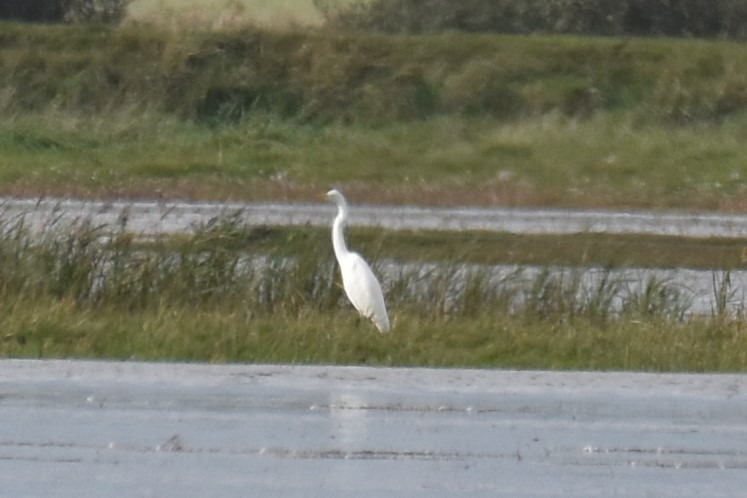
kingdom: Animalia
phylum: Chordata
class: Aves
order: Pelecaniformes
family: Ardeidae
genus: Ardea
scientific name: Ardea alba
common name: Sølvhejre
